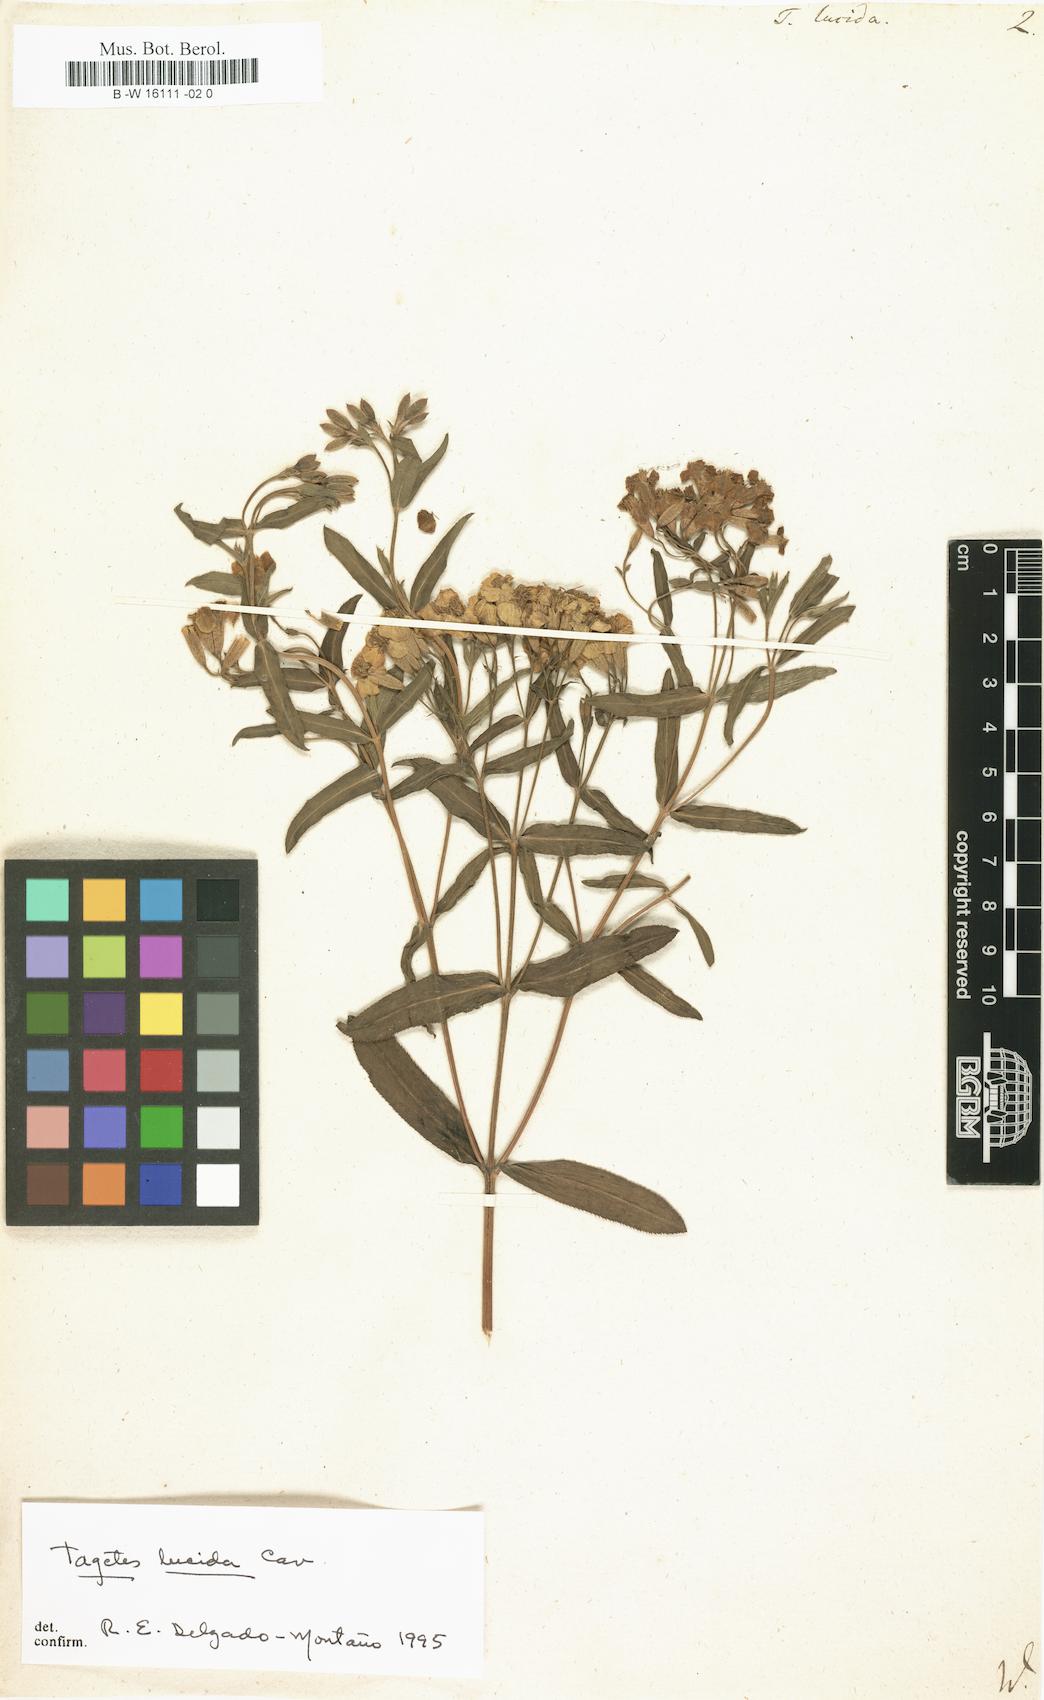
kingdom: Plantae
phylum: Tracheophyta
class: Magnoliopsida
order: Asterales
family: Asteraceae
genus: Tagetes
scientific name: Tagetes lucida
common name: Sweetscented marigold
